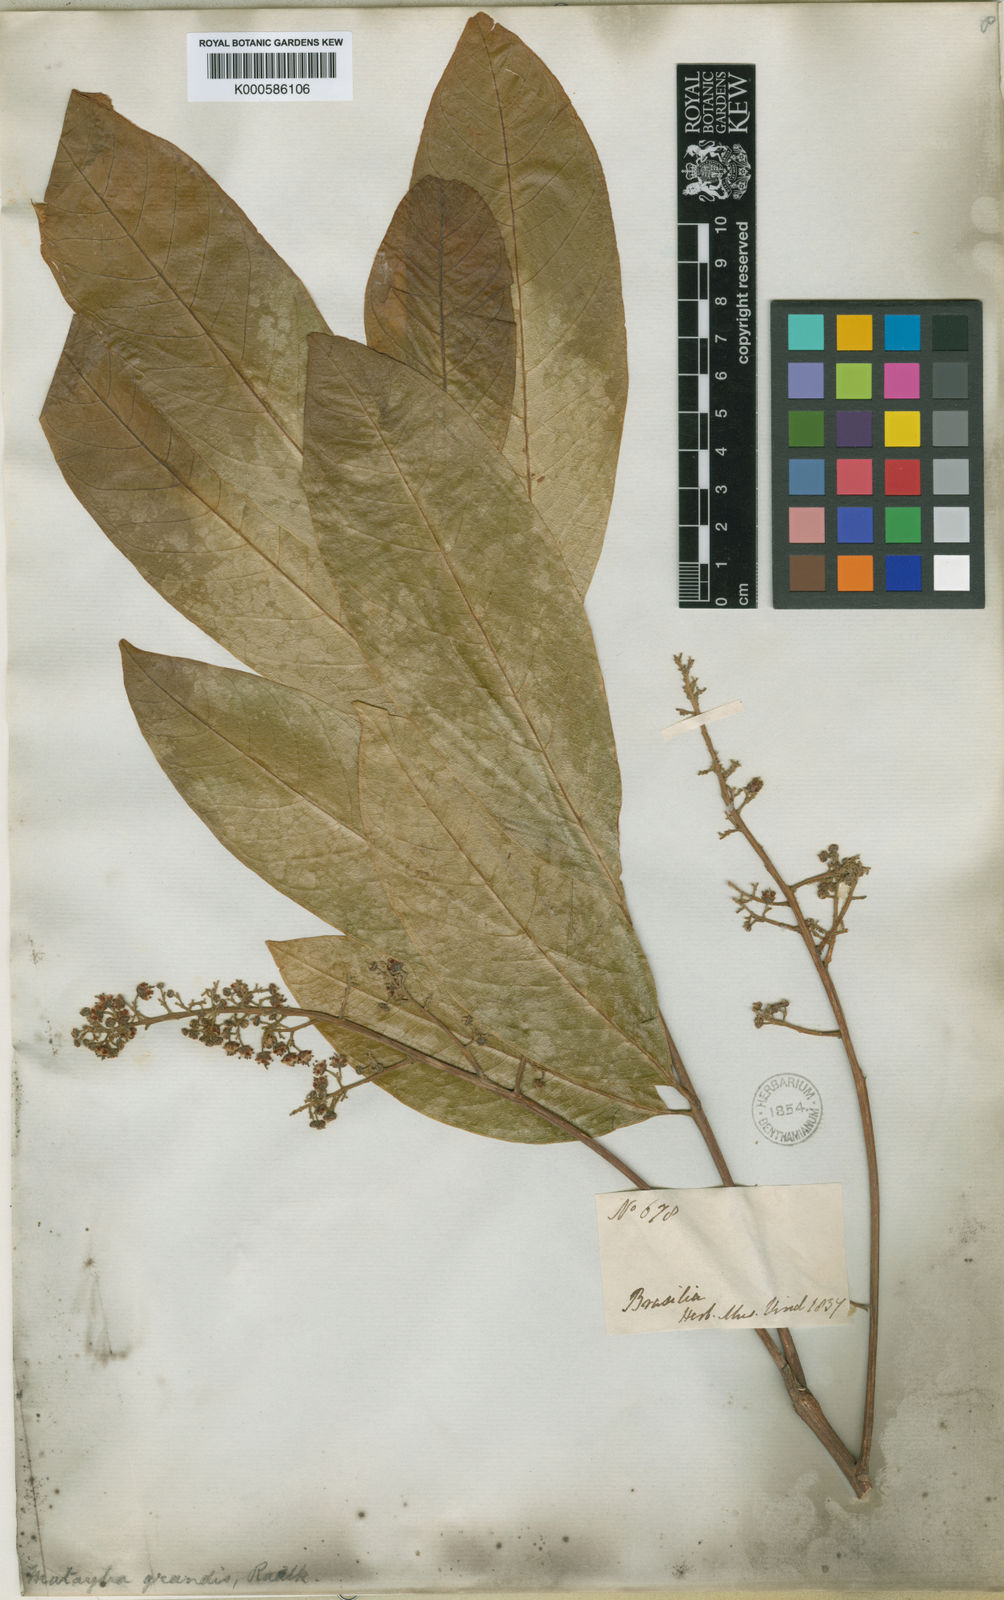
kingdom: Plantae
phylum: Tracheophyta
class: Magnoliopsida
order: Sapindales
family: Sapindaceae
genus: Matayba
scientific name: Matayba grandis
